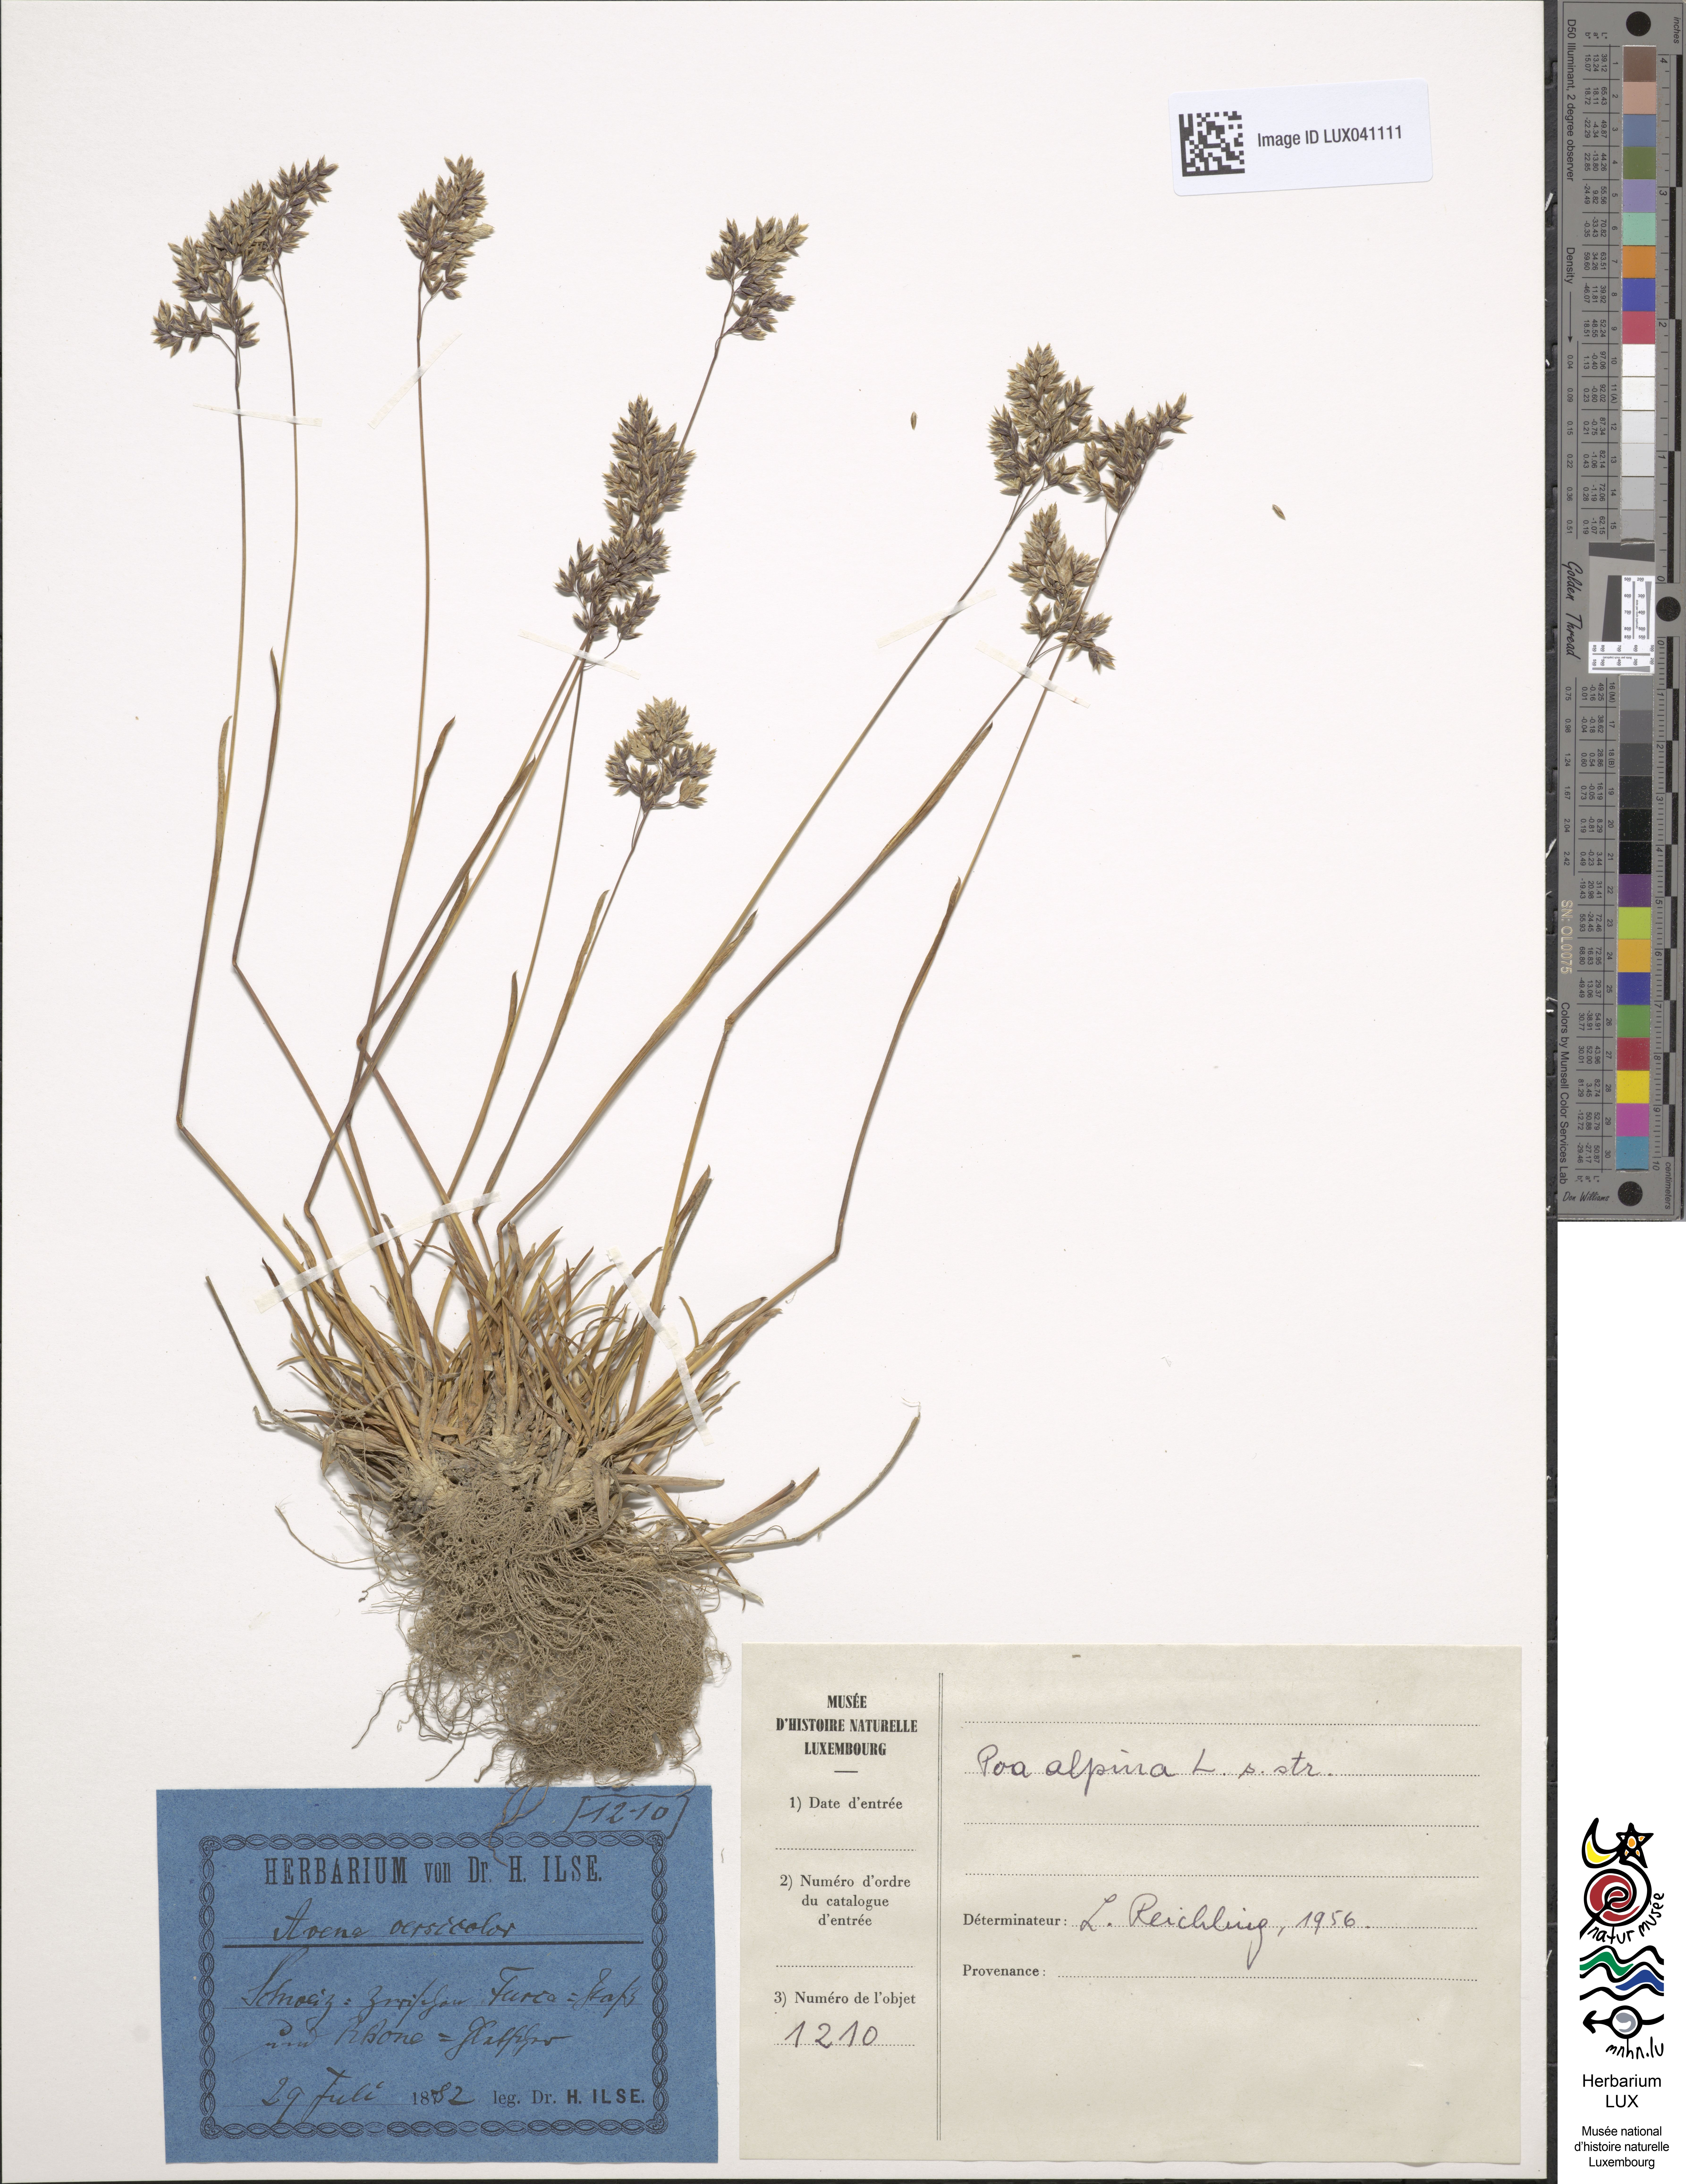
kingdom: Plantae
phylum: Tracheophyta
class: Liliopsida
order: Poales
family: Poaceae
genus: Poa
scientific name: Poa alpina
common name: Alpine bluegrass
